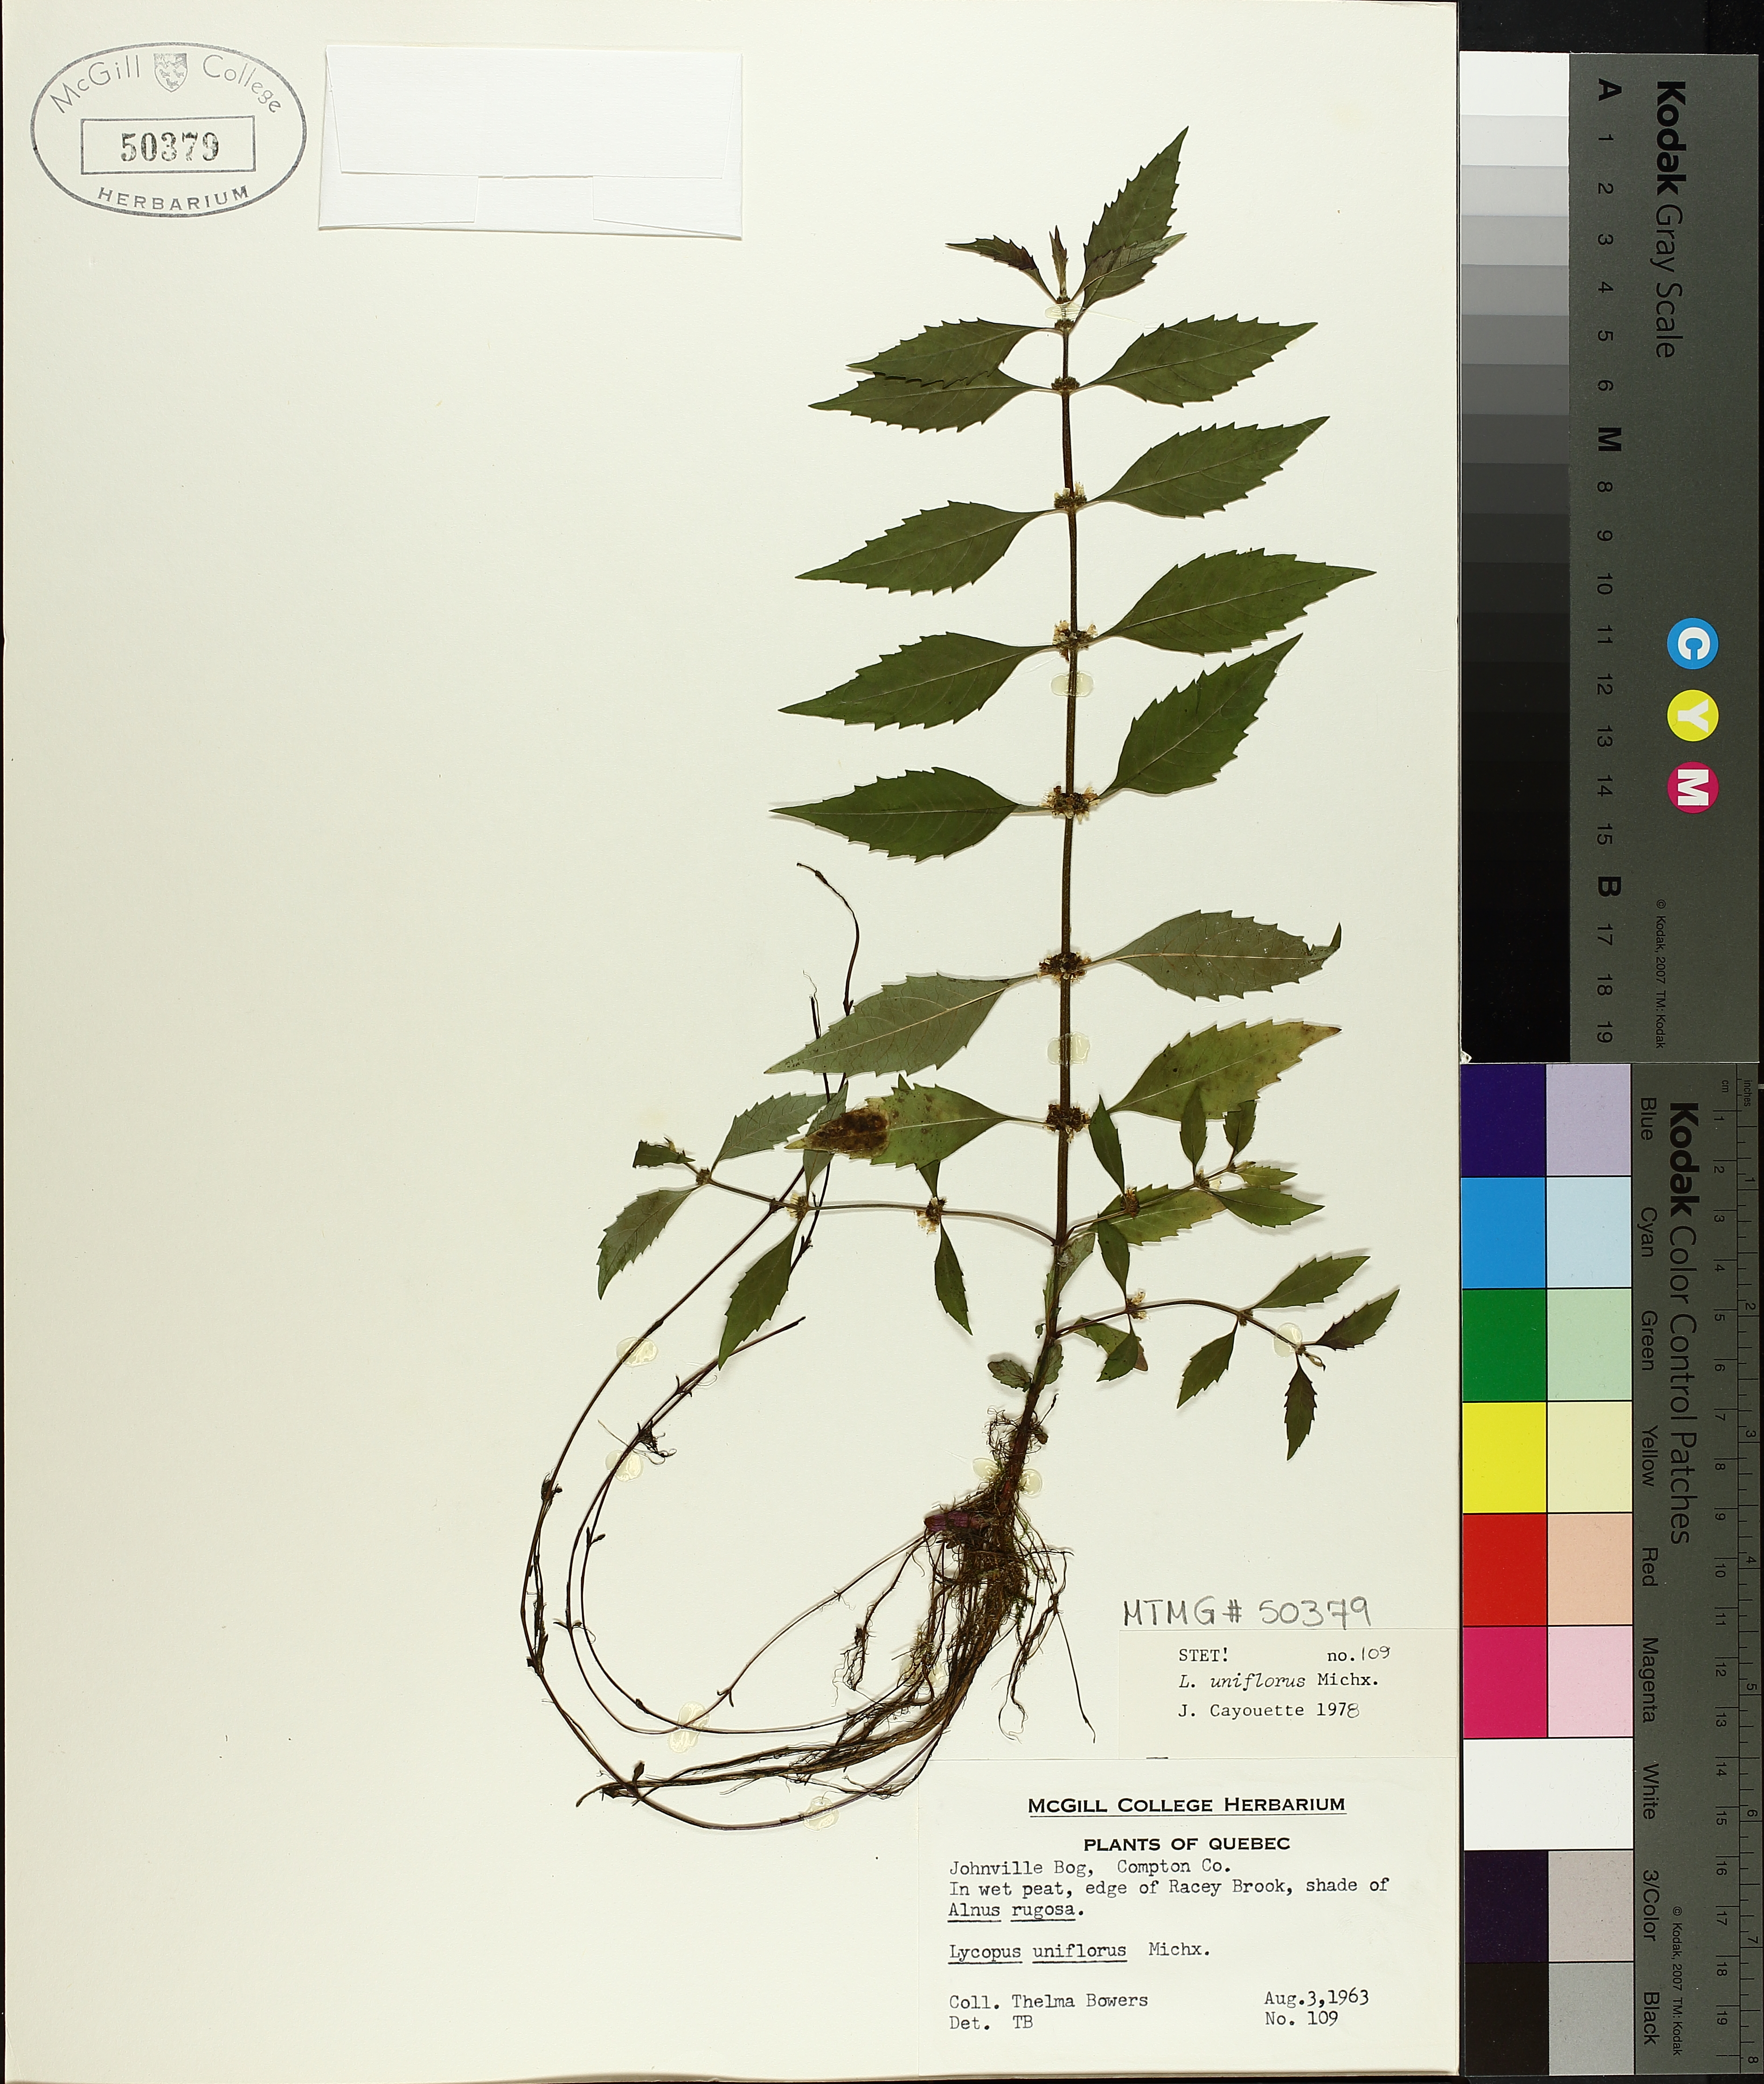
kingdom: Plantae
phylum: Tracheophyta
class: Magnoliopsida
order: Lamiales
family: Lamiaceae
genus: Lycopus
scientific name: Lycopus uniflorus
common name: Northern bugleweed
